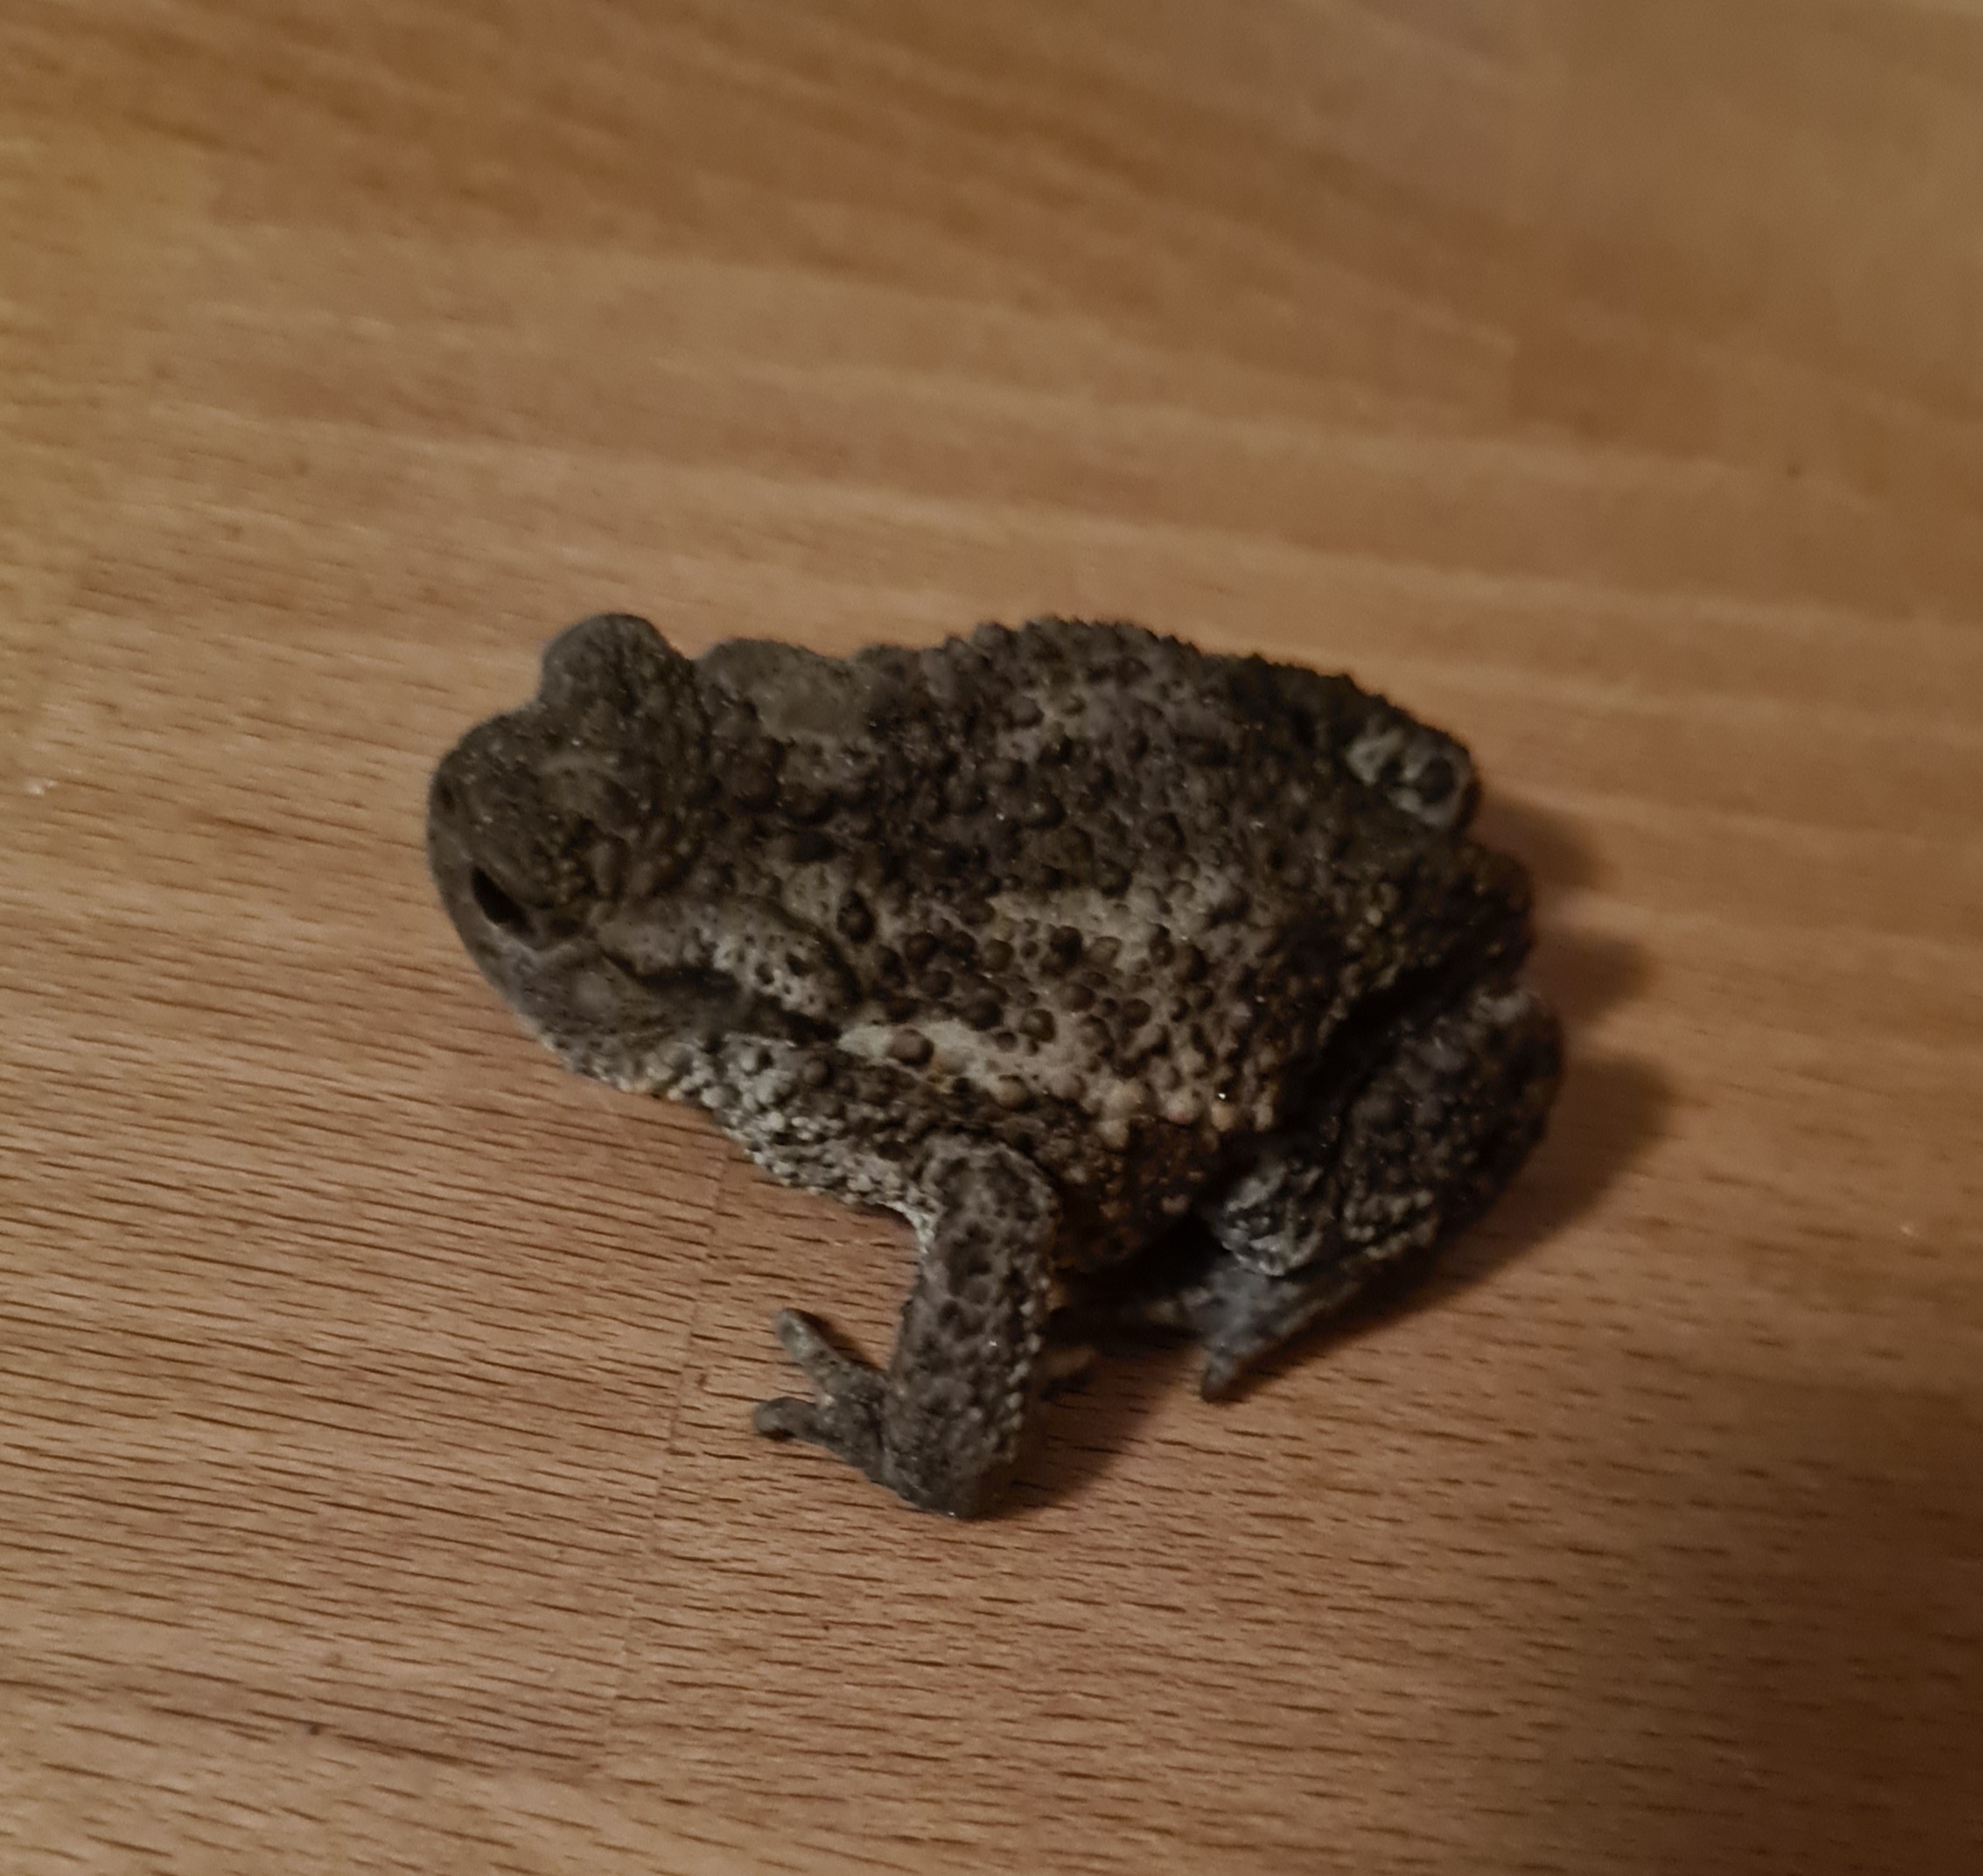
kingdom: Animalia
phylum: Chordata
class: Amphibia
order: Anura
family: Bufonidae
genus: Bufo
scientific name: Bufo bufo
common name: Skrubtudse
